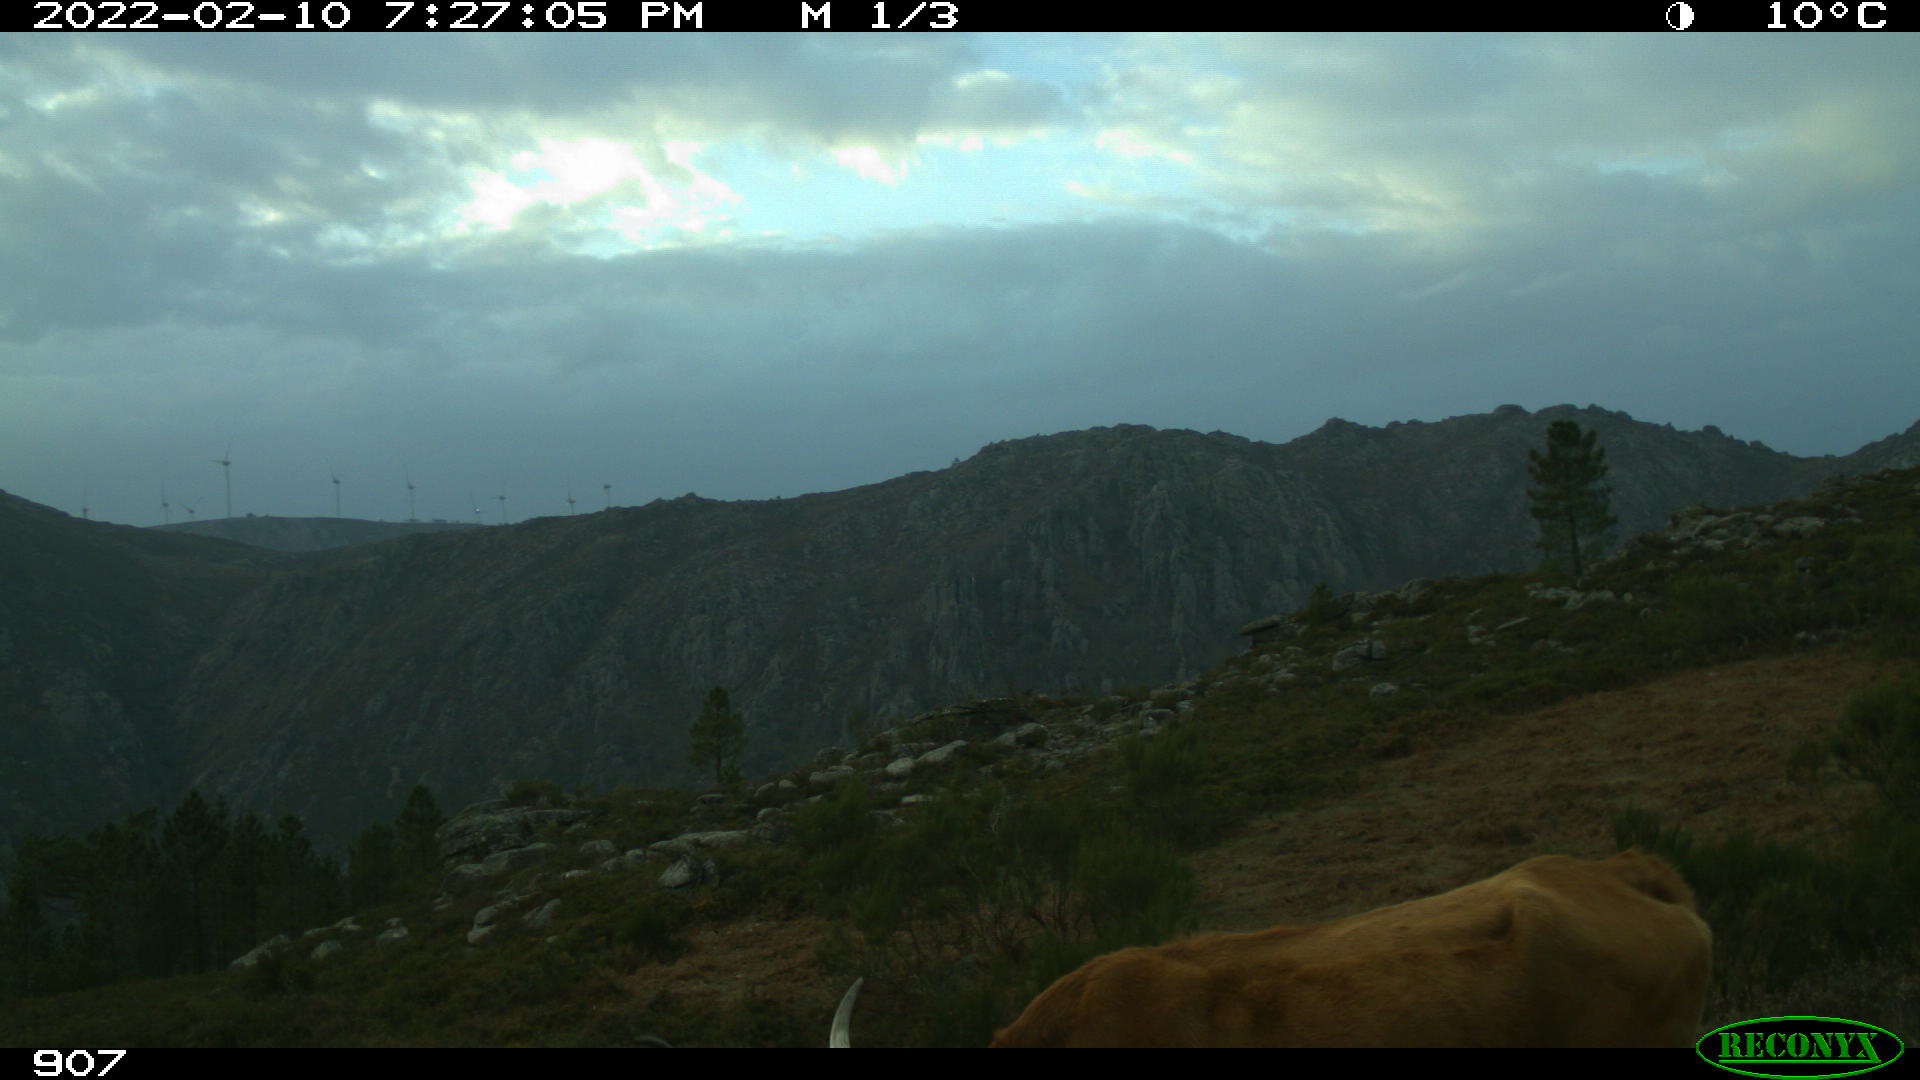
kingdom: Animalia
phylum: Chordata
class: Mammalia
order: Artiodactyla
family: Bovidae
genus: Bos
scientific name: Bos taurus
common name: Domesticated cattle
